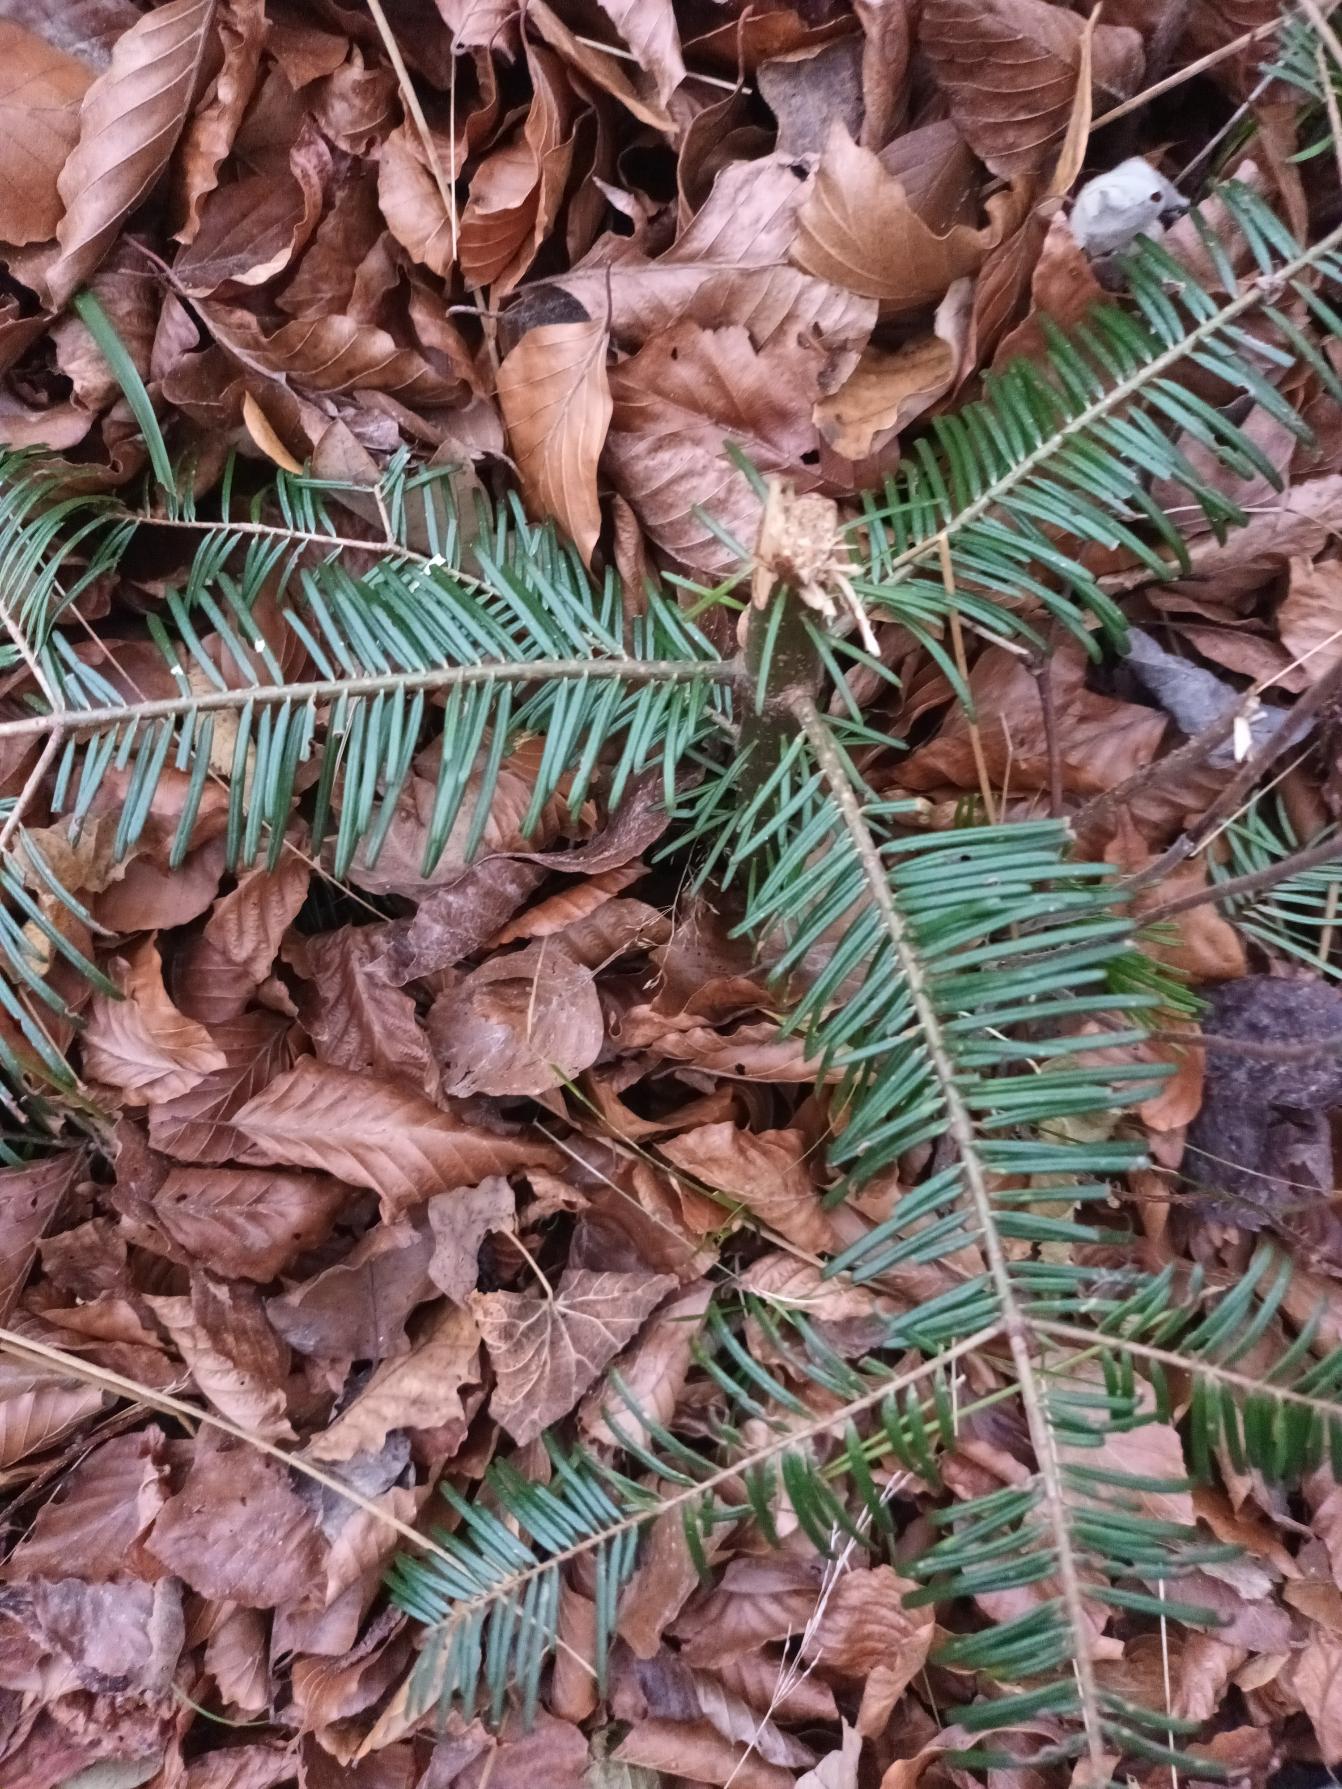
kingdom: Plantae
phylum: Tracheophyta
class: Pinopsida
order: Pinales
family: Pinaceae
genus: Abies
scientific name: Abies grandis
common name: Kæmpegran
